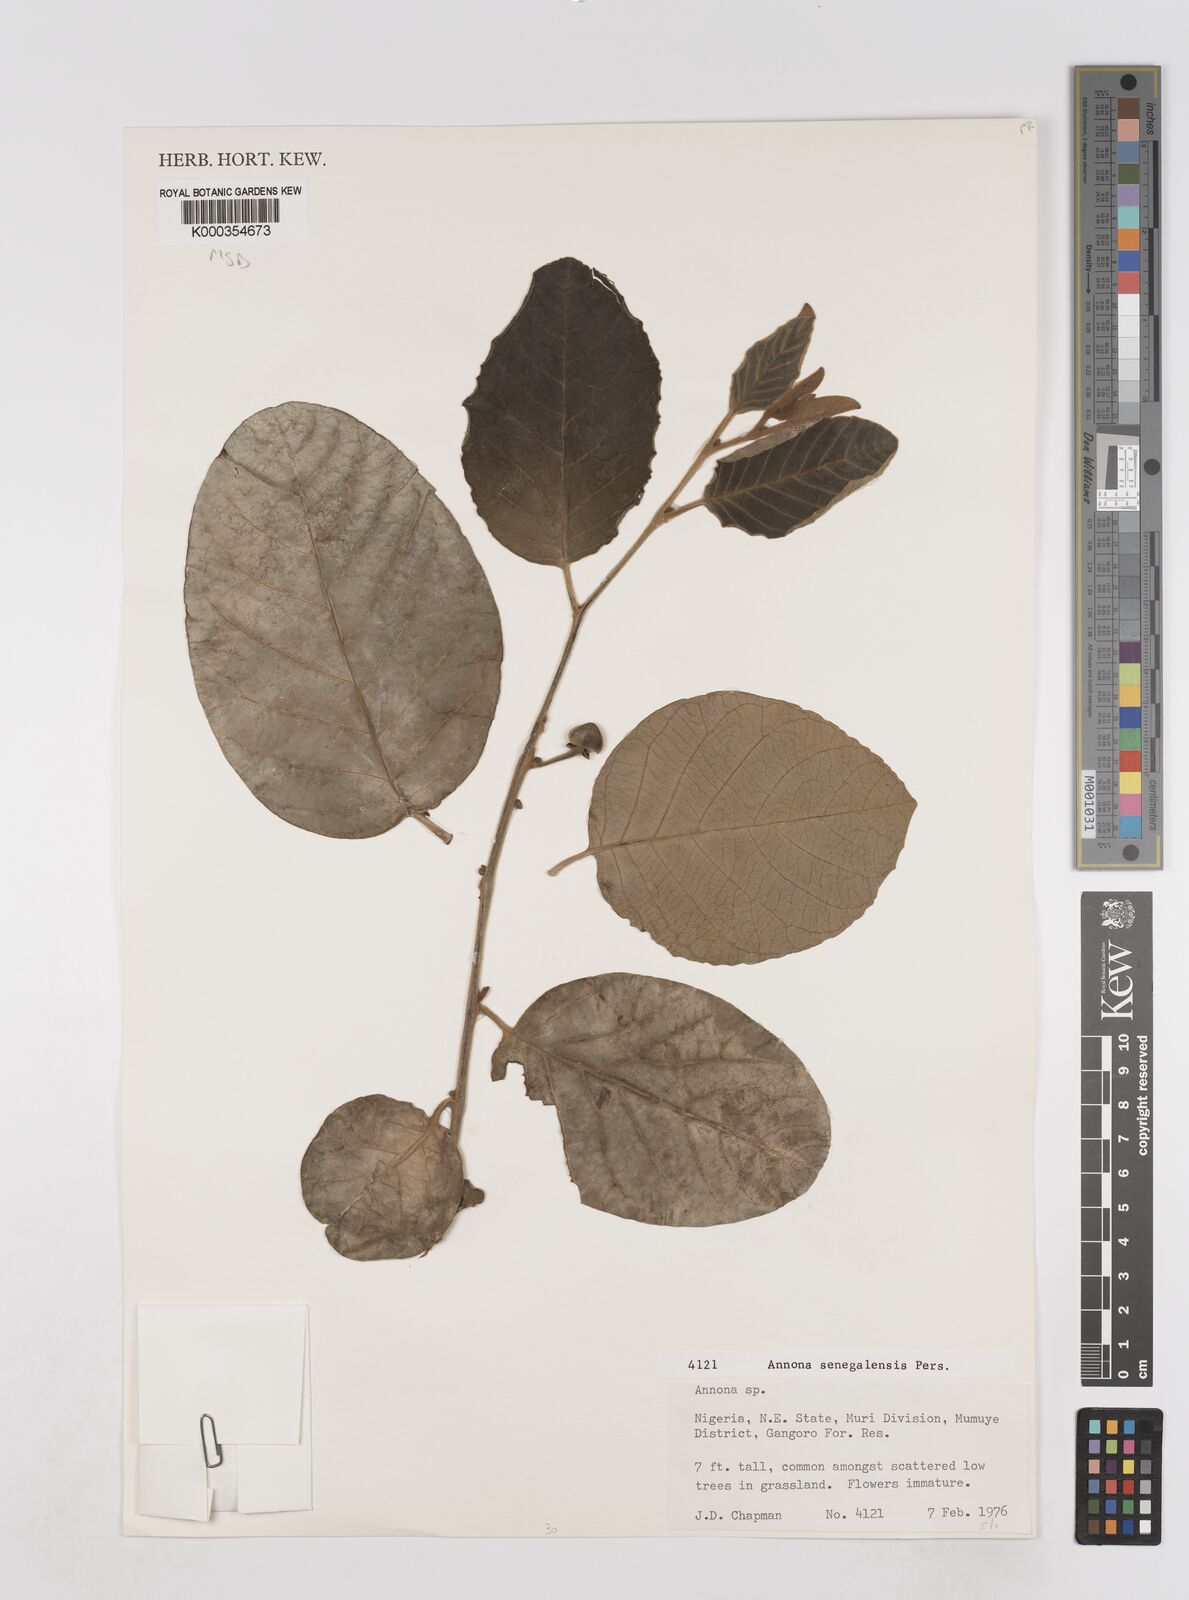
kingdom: Plantae
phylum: Tracheophyta
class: Magnoliopsida
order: Magnoliales
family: Annonaceae
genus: Annona
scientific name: Annona senegalensis
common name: Wild custard-apple
